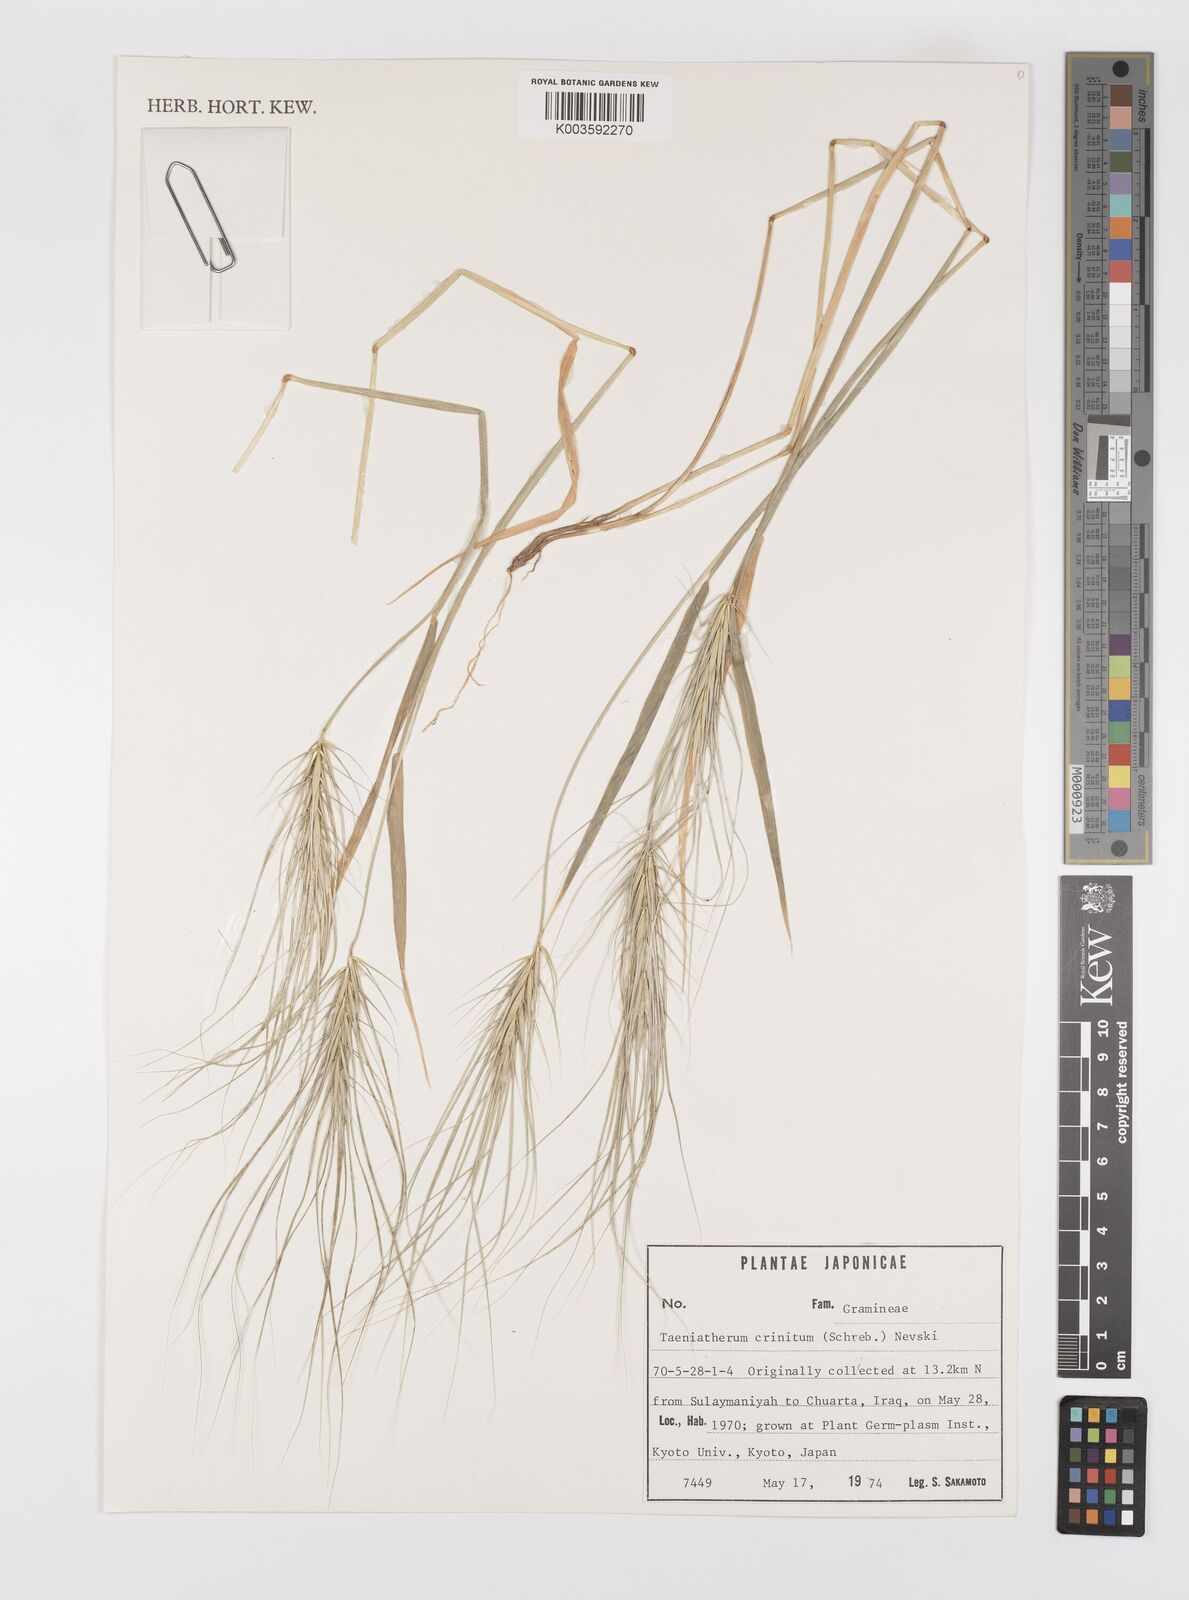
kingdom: Plantae
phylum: Tracheophyta
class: Liliopsida
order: Poales
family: Poaceae
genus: Taeniatherum
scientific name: Taeniatherum caput-medusae
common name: Medusahead
